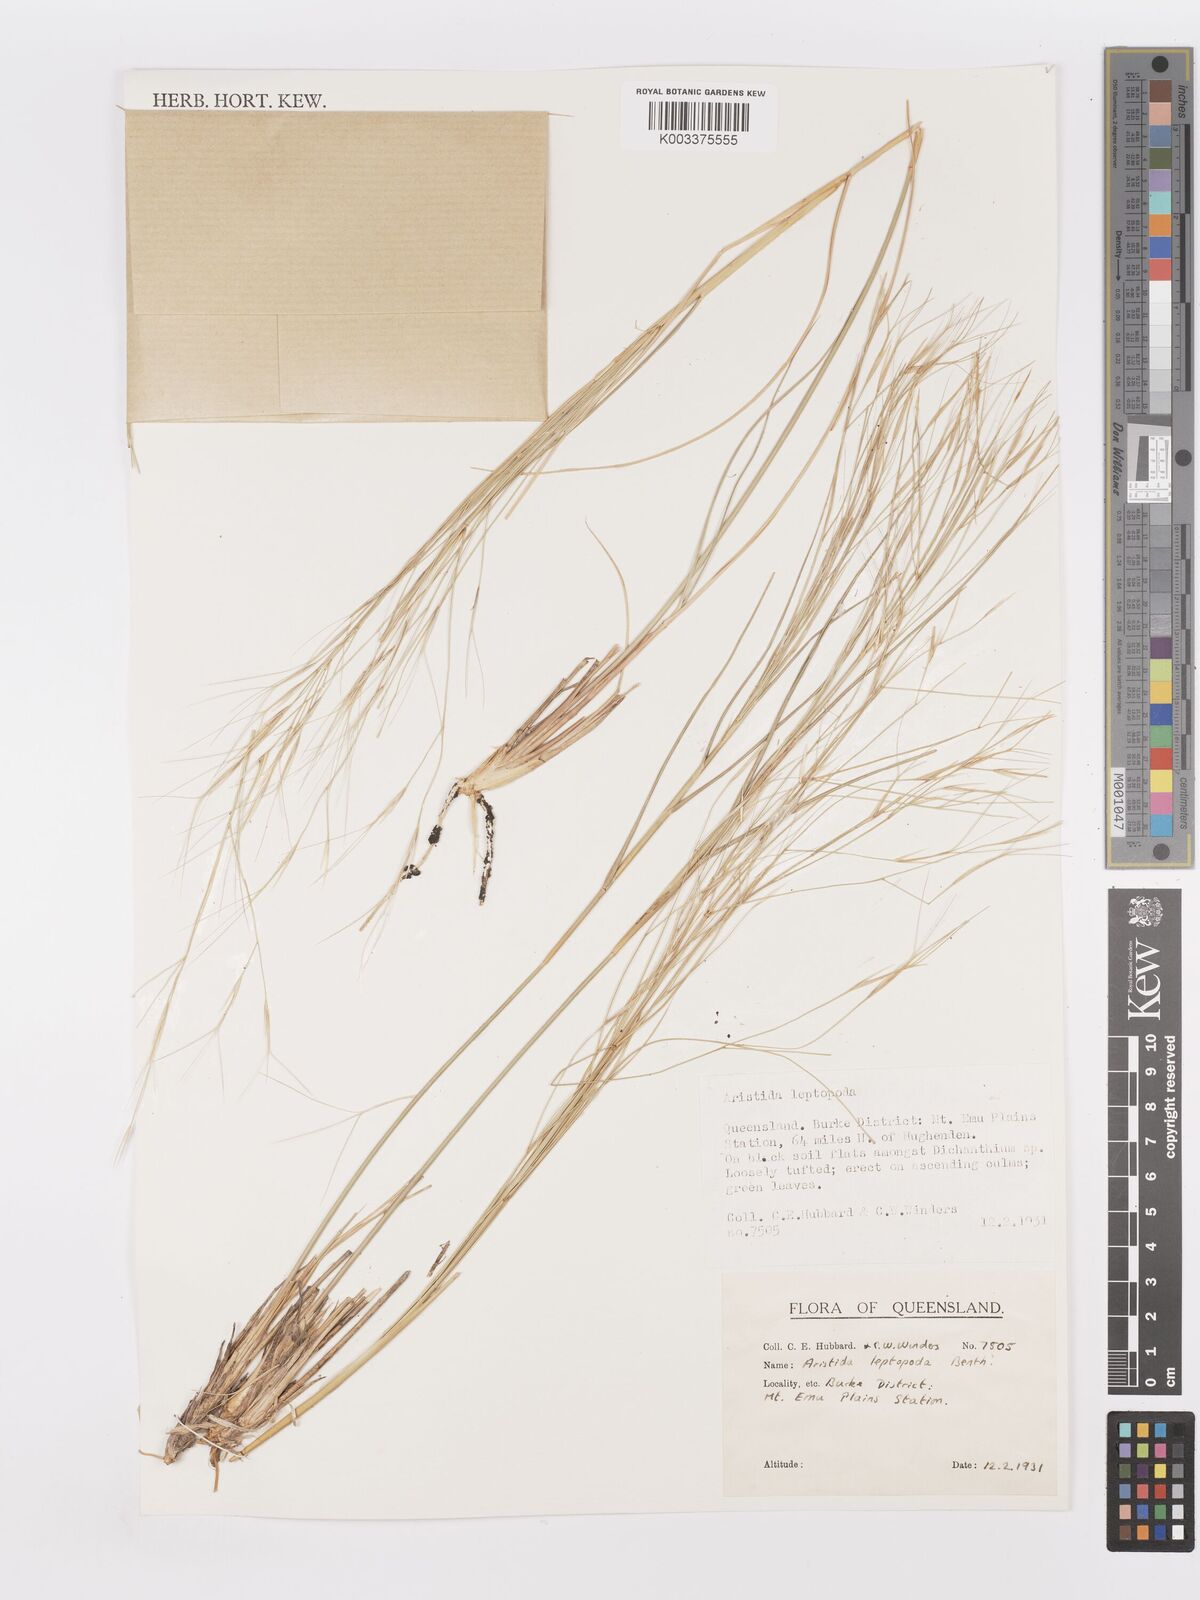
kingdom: Plantae
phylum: Tracheophyta
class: Liliopsida
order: Poales
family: Poaceae
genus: Aristida
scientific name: Aristida leptopoda
